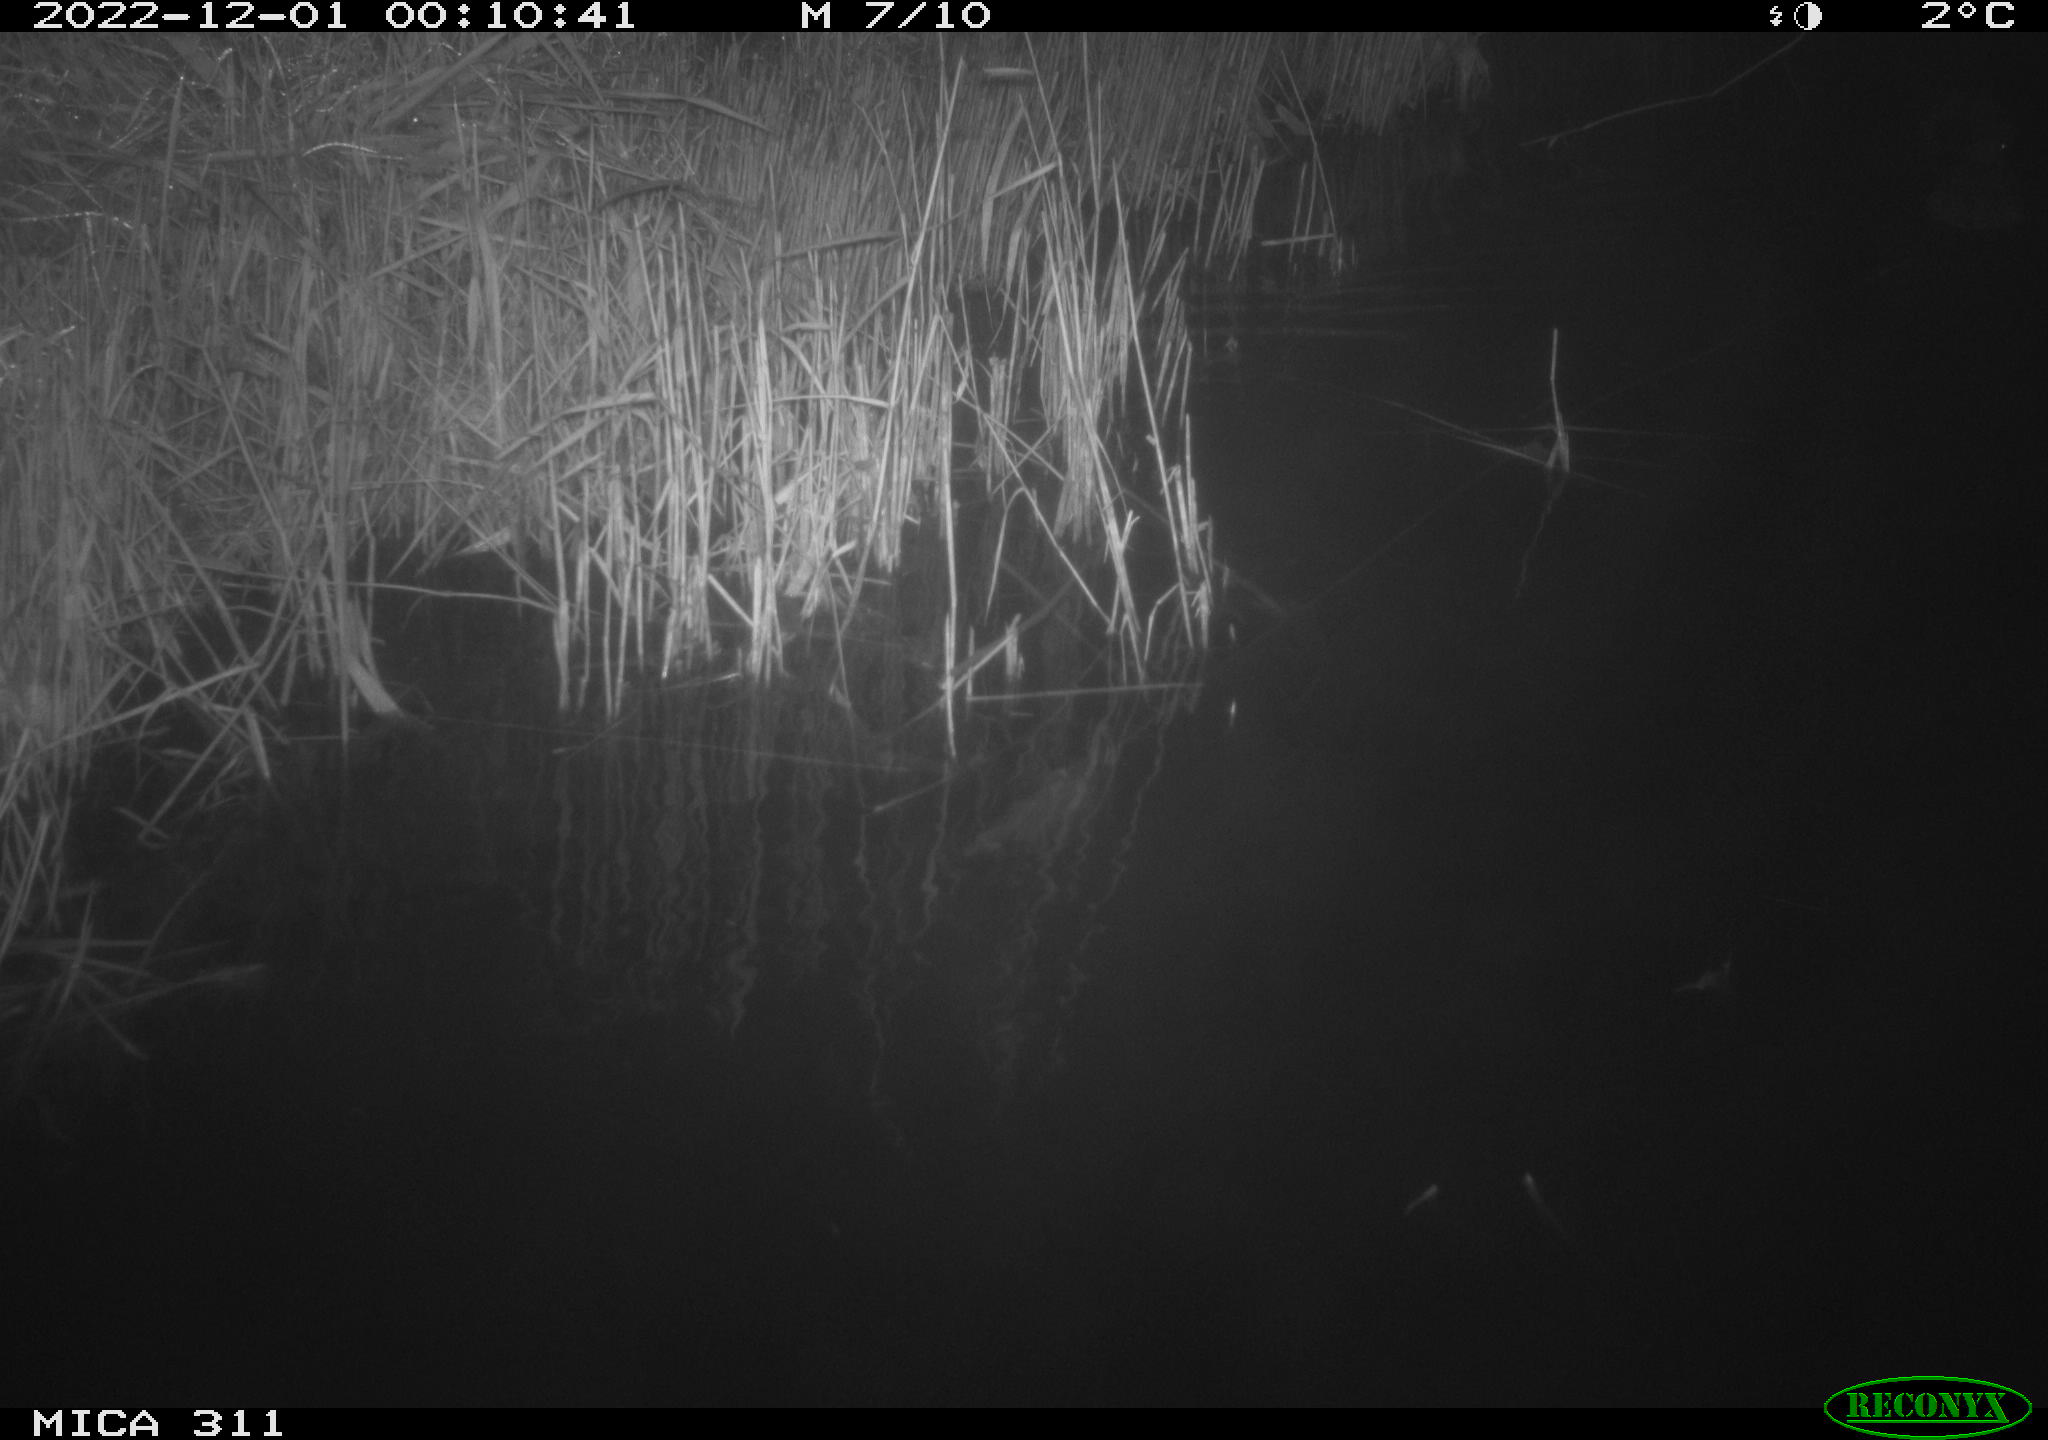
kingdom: Animalia
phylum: Chordata
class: Aves
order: Gruiformes
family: Rallidae
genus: Fulica
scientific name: Fulica atra
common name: Eurasian coot
